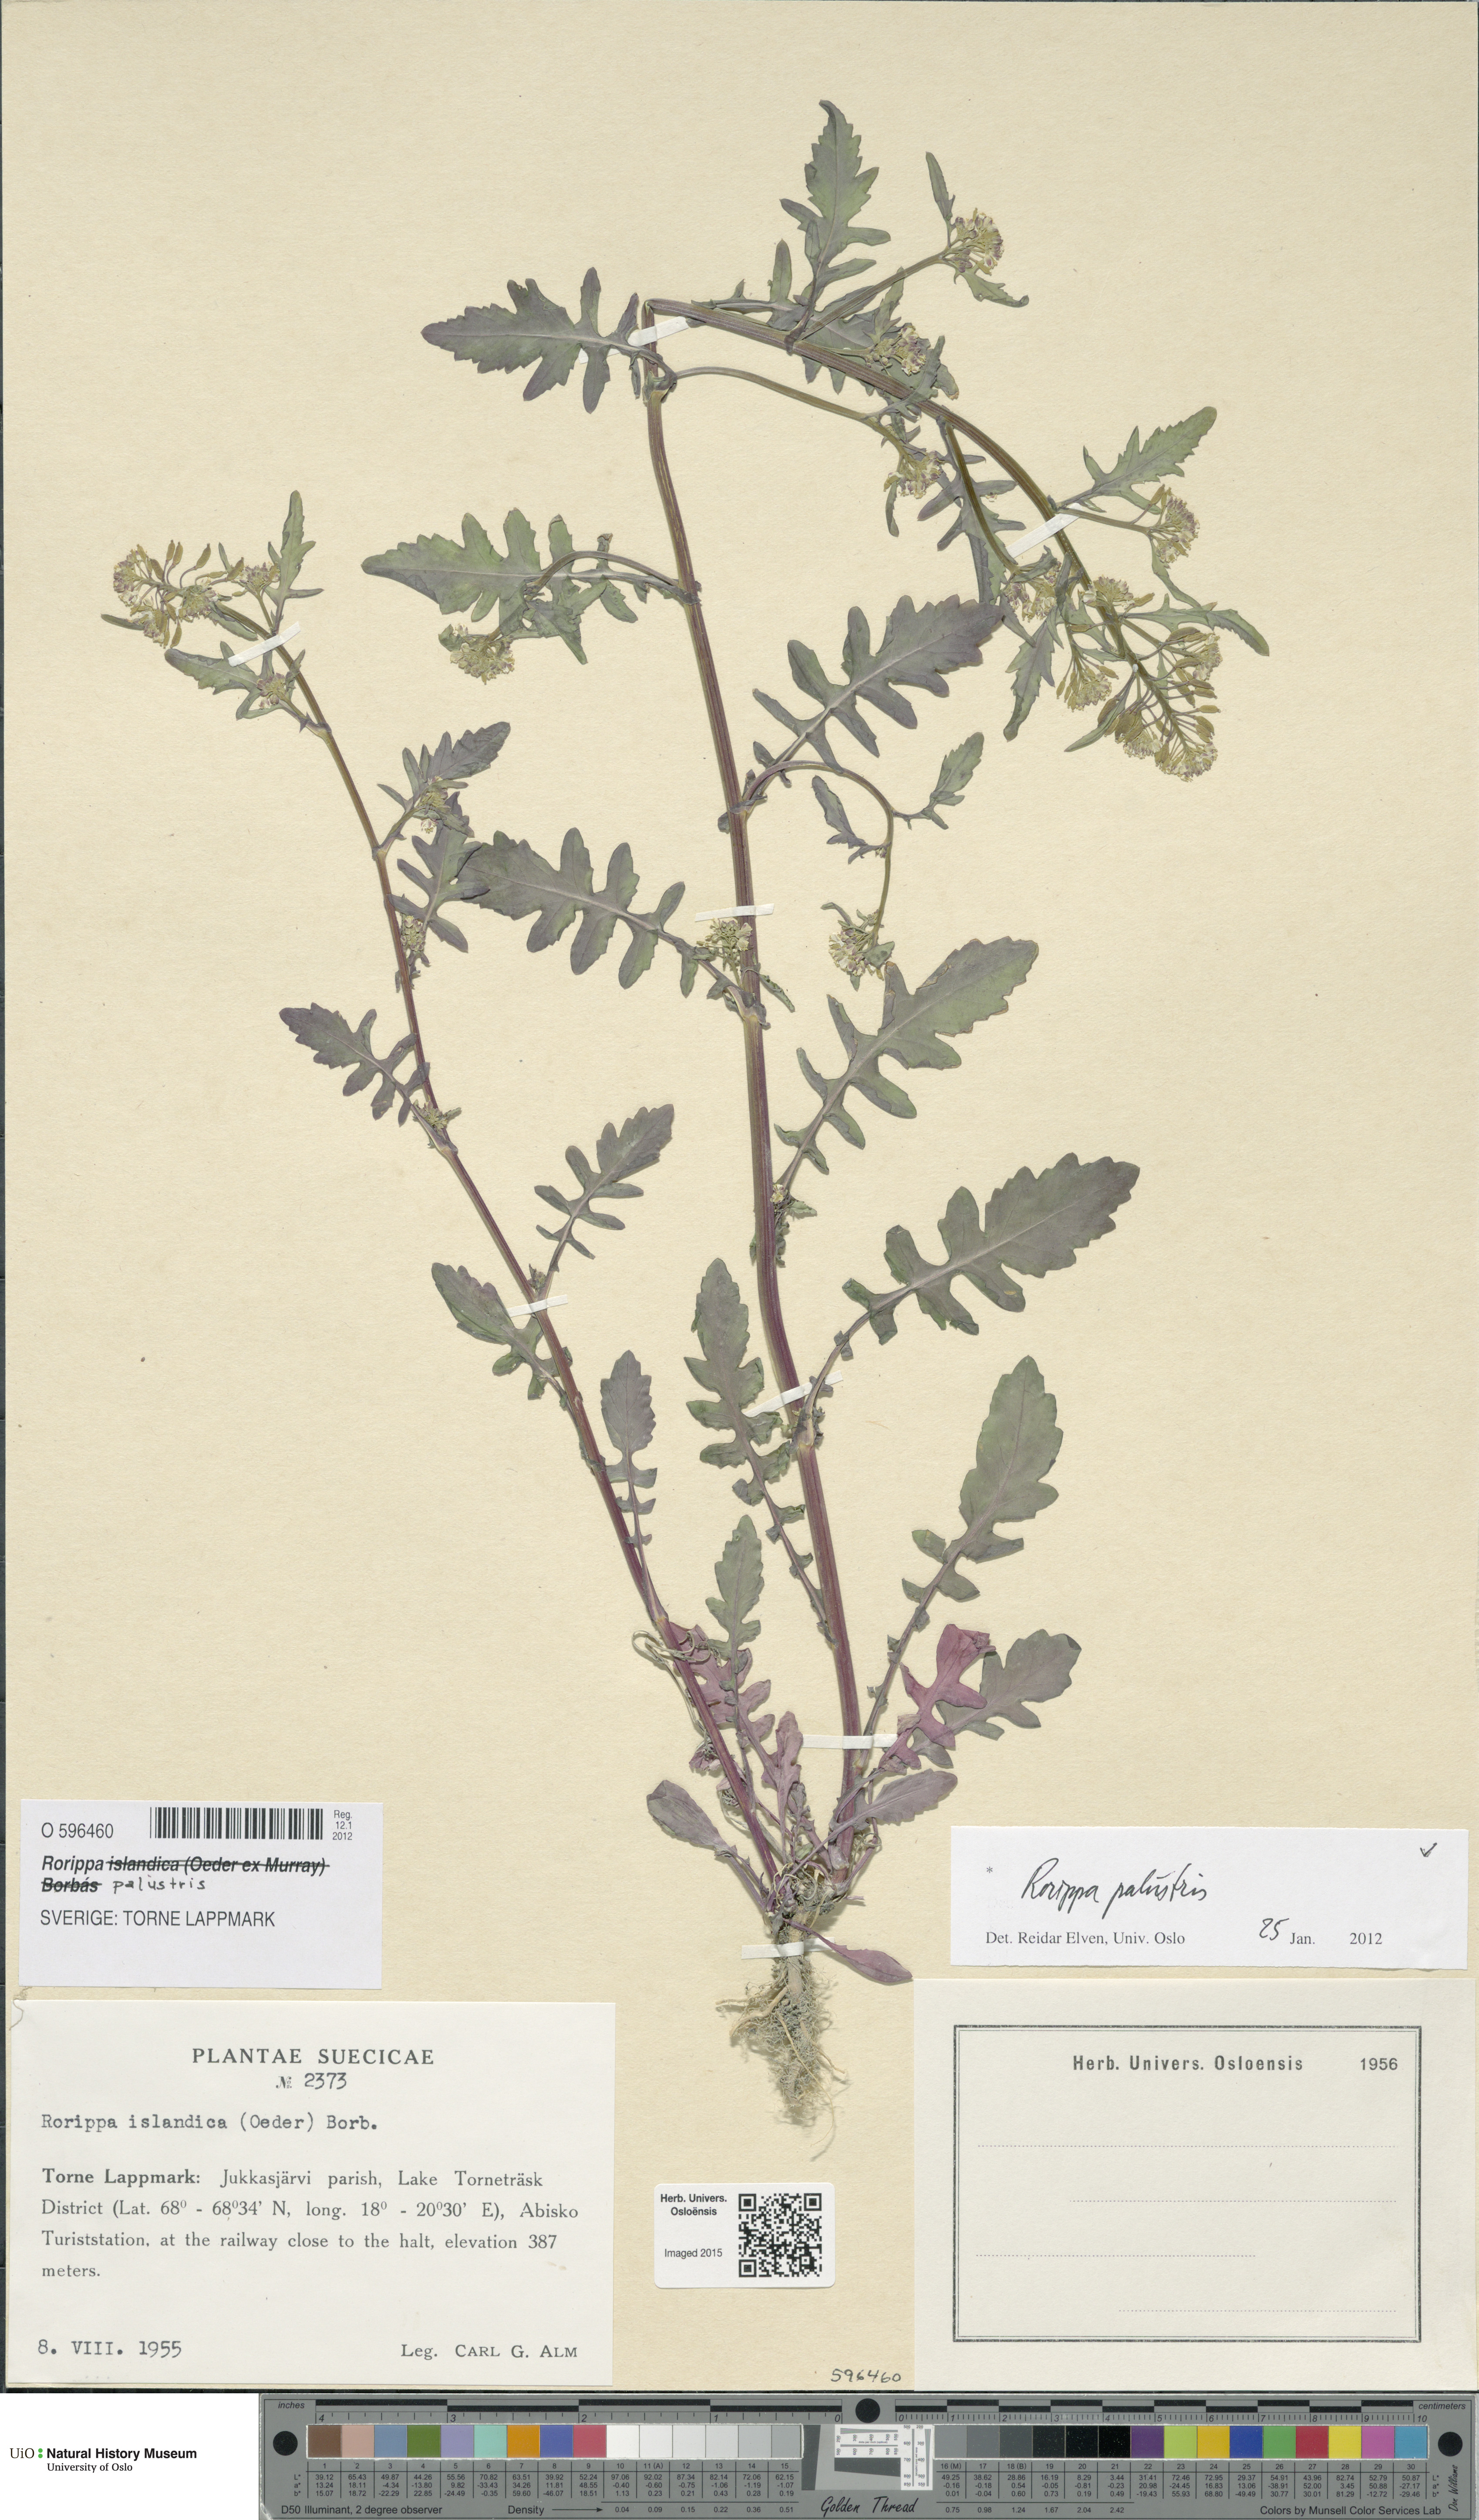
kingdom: Plantae
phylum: Tracheophyta
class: Magnoliopsida
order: Brassicales
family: Brassicaceae
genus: Rorippa
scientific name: Rorippa palustris
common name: Marsh yellow-cress
